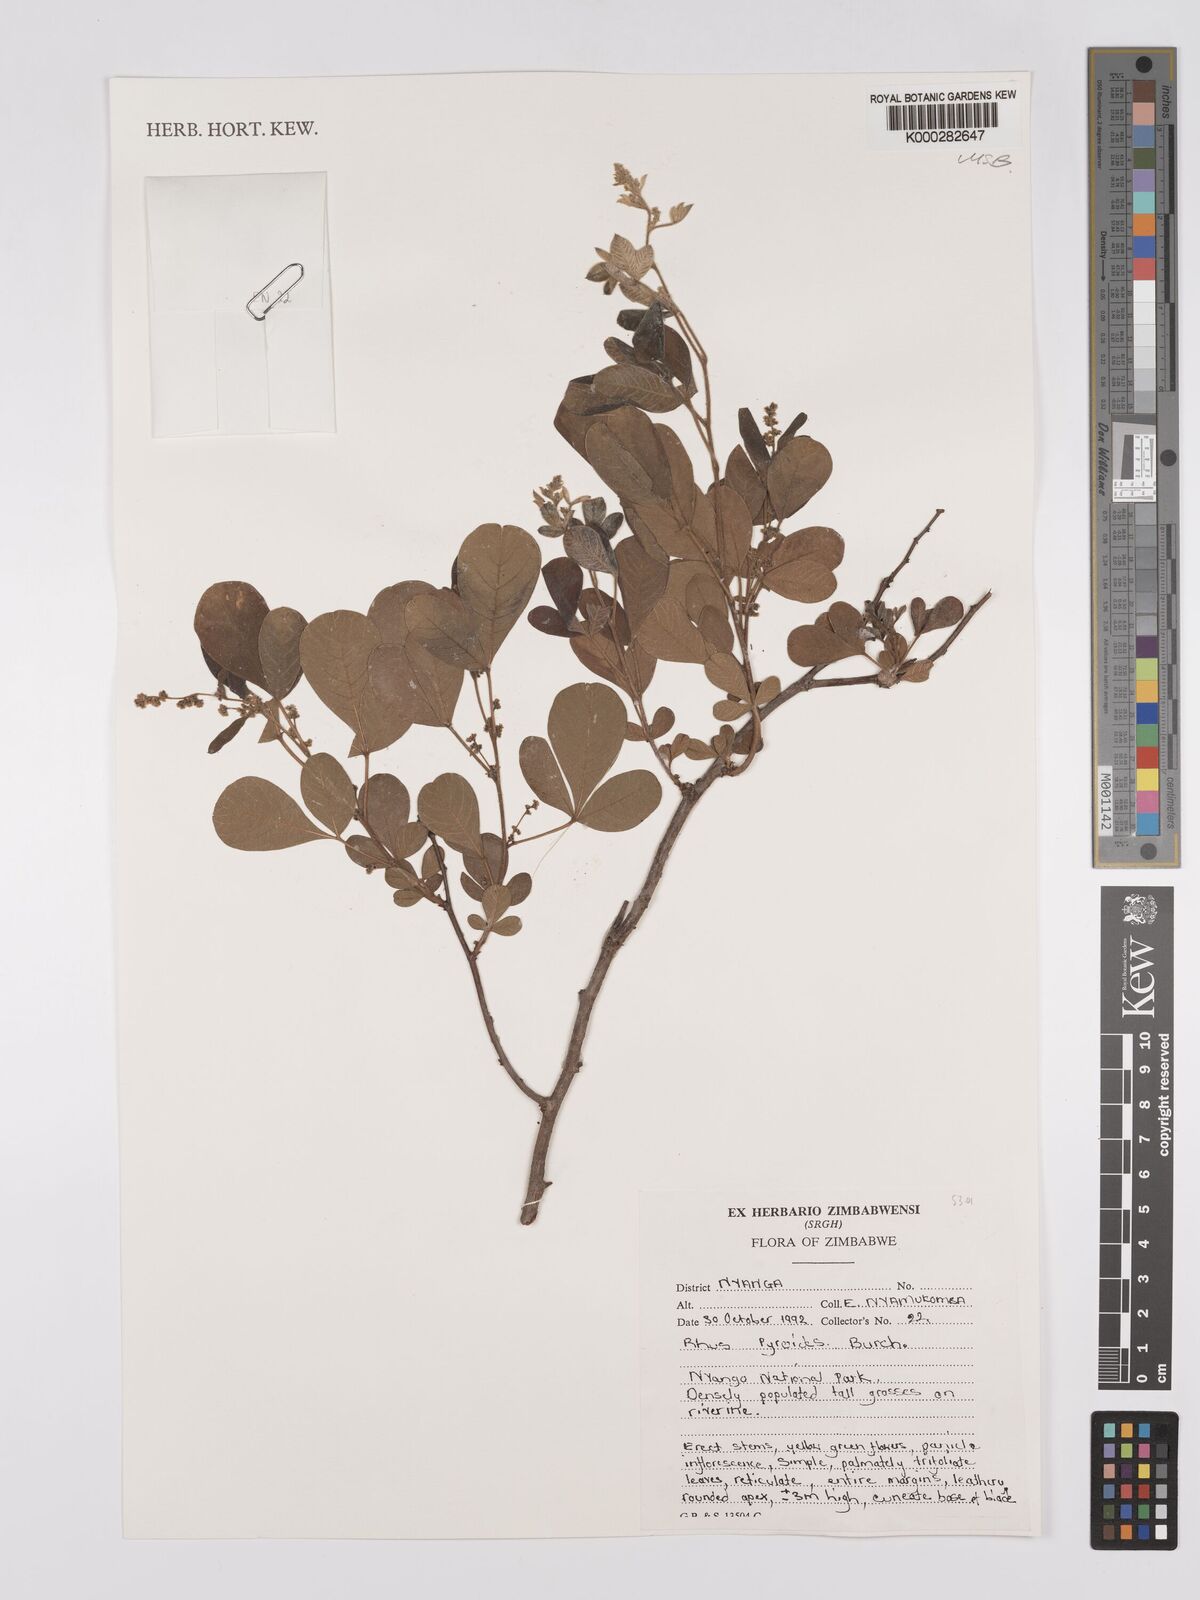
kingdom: Plantae
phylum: Tracheophyta
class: Magnoliopsida
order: Sapindales
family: Anacardiaceae
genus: Searsia
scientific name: Searsia pyroides
